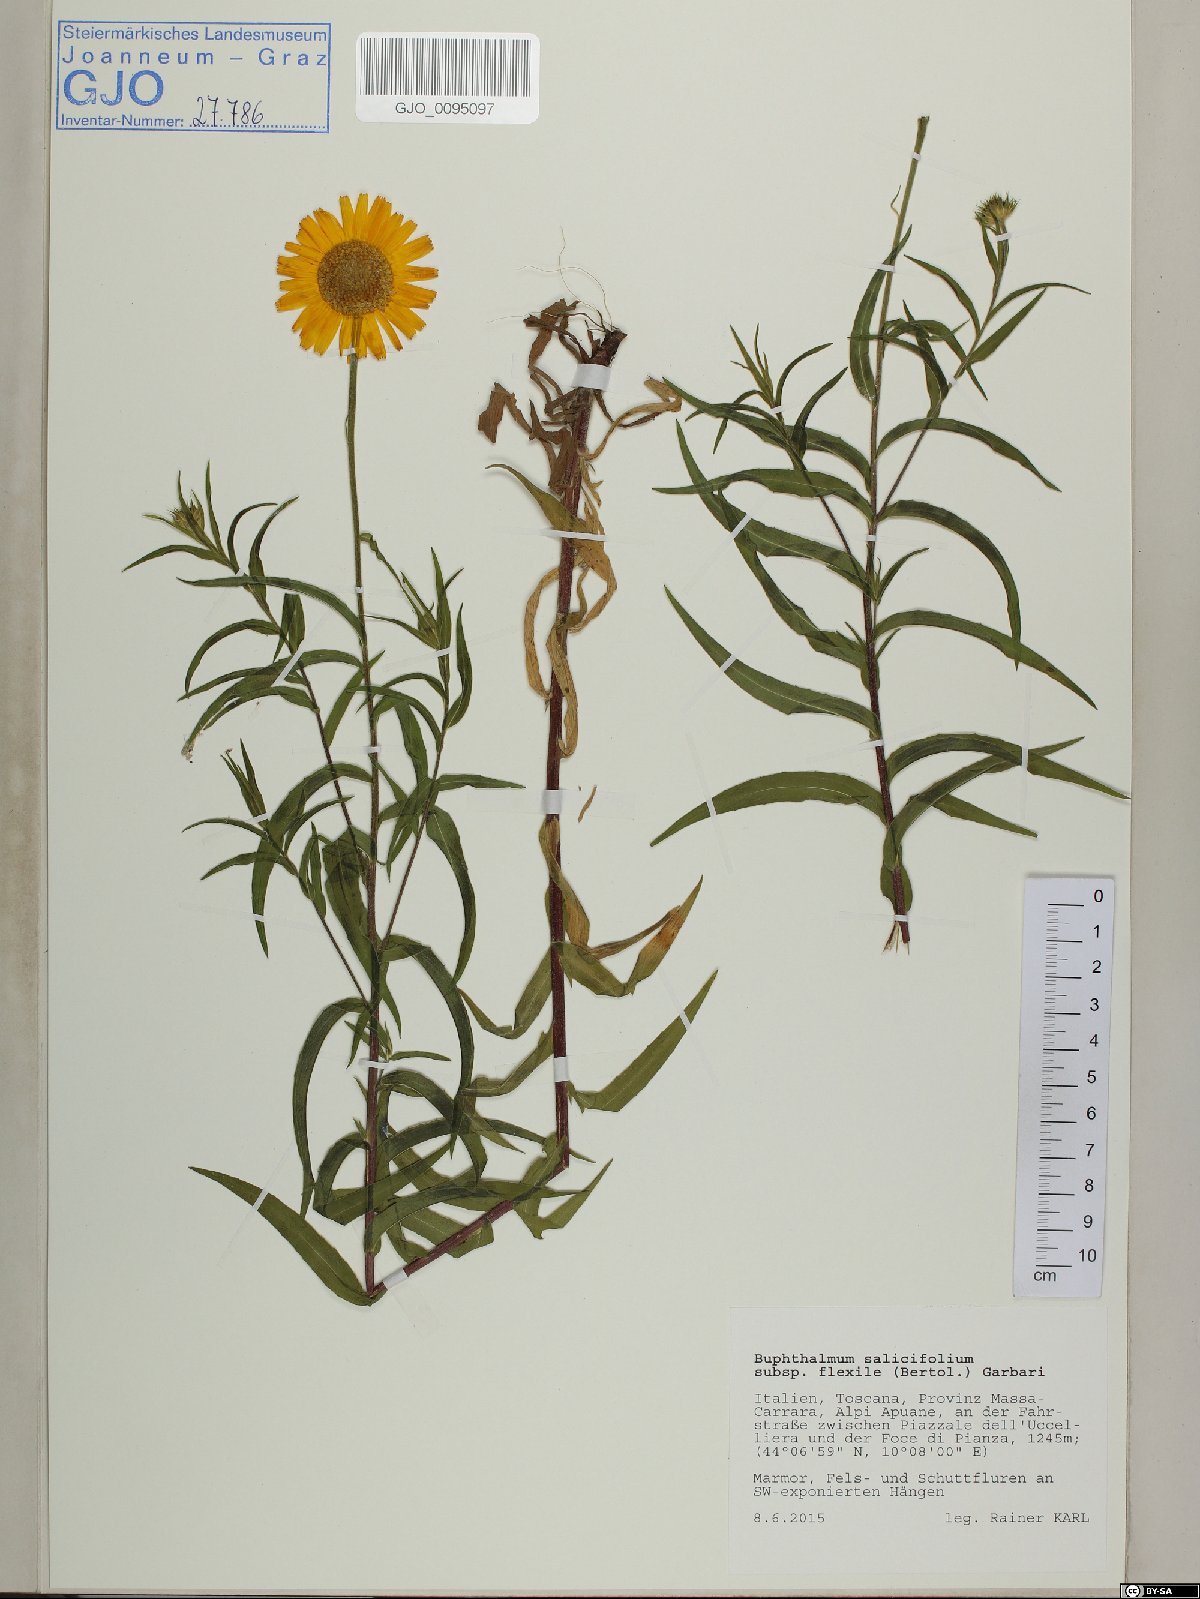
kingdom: Plantae
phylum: Tracheophyta
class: Magnoliopsida
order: Asterales
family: Asteraceae
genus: Buphthalmum
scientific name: Buphthalmum salicifolium
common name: Willow-leaved yellow-oxeye
